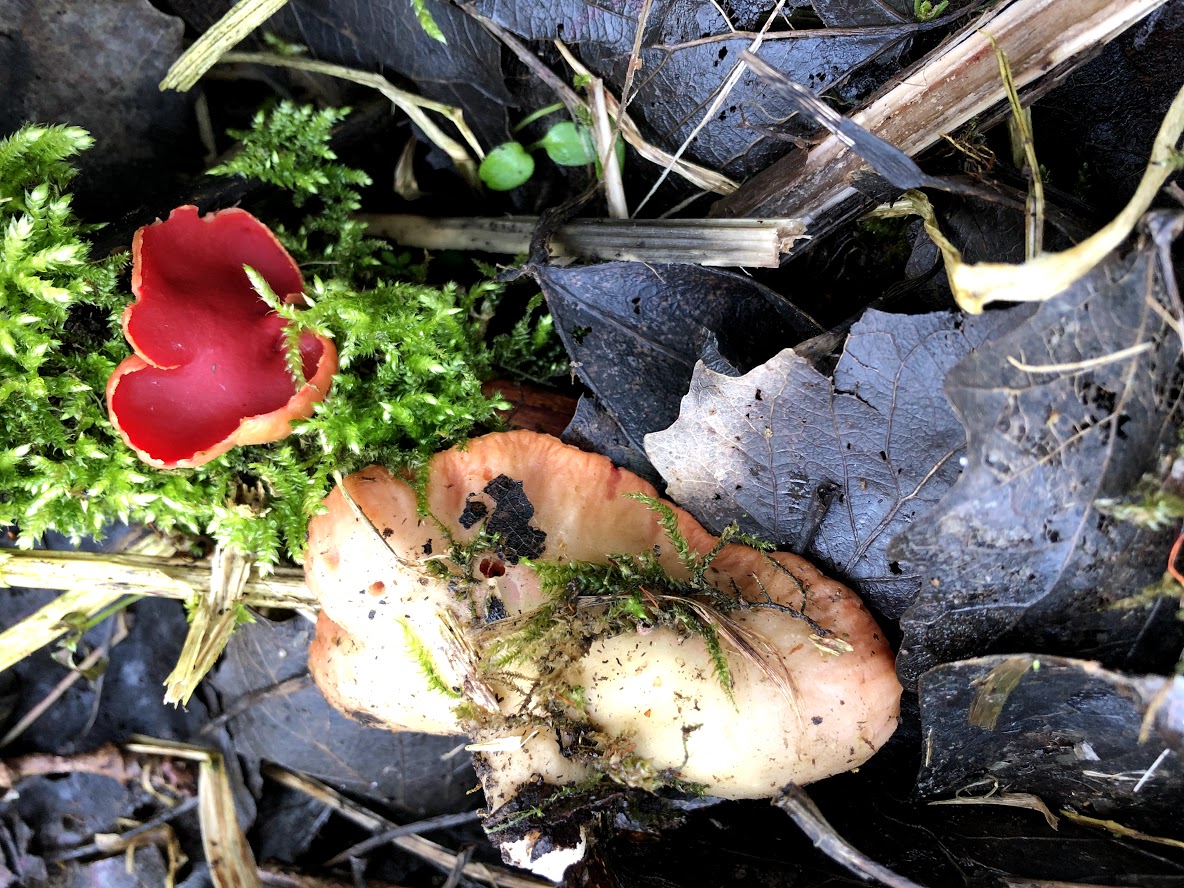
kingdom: Fungi
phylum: Ascomycota
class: Pezizomycetes
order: Pezizales
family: Sarcoscyphaceae
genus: Sarcoscypha
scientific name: Sarcoscypha austriaca
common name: krølhåret pragtbæger
